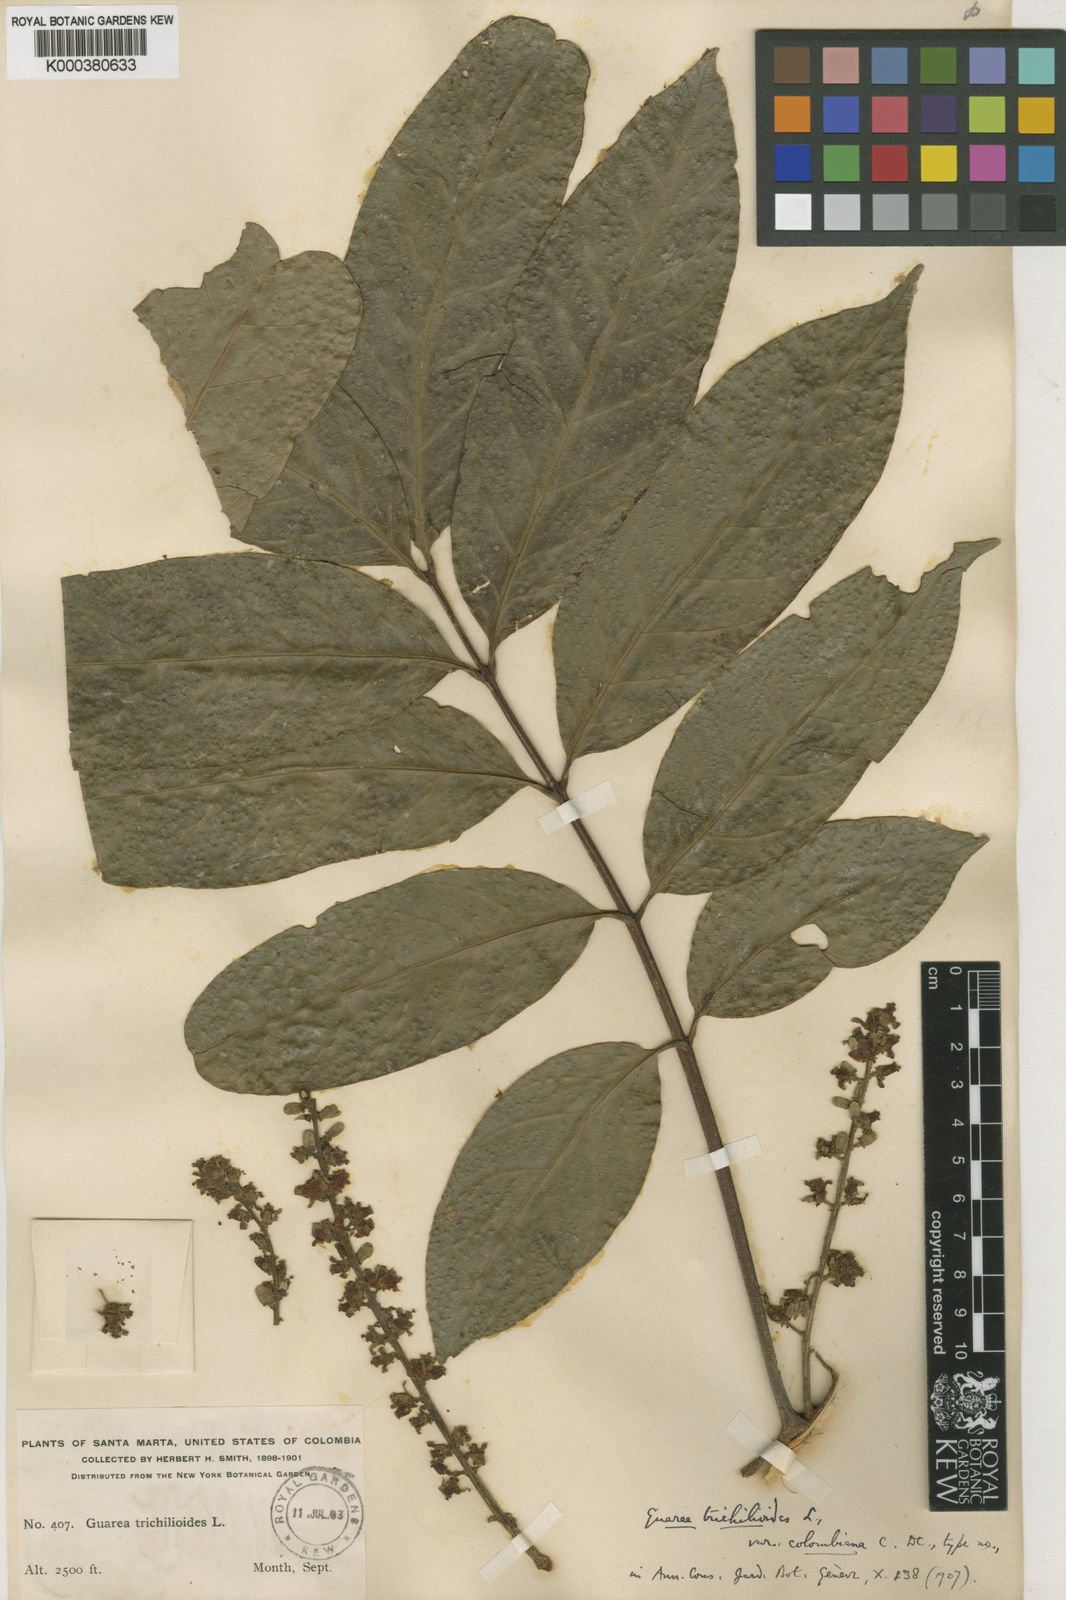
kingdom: Plantae
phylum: Tracheophyta
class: Magnoliopsida
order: Sapindales
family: Meliaceae
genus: Guarea
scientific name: Guarea guidonia
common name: American muskwood
